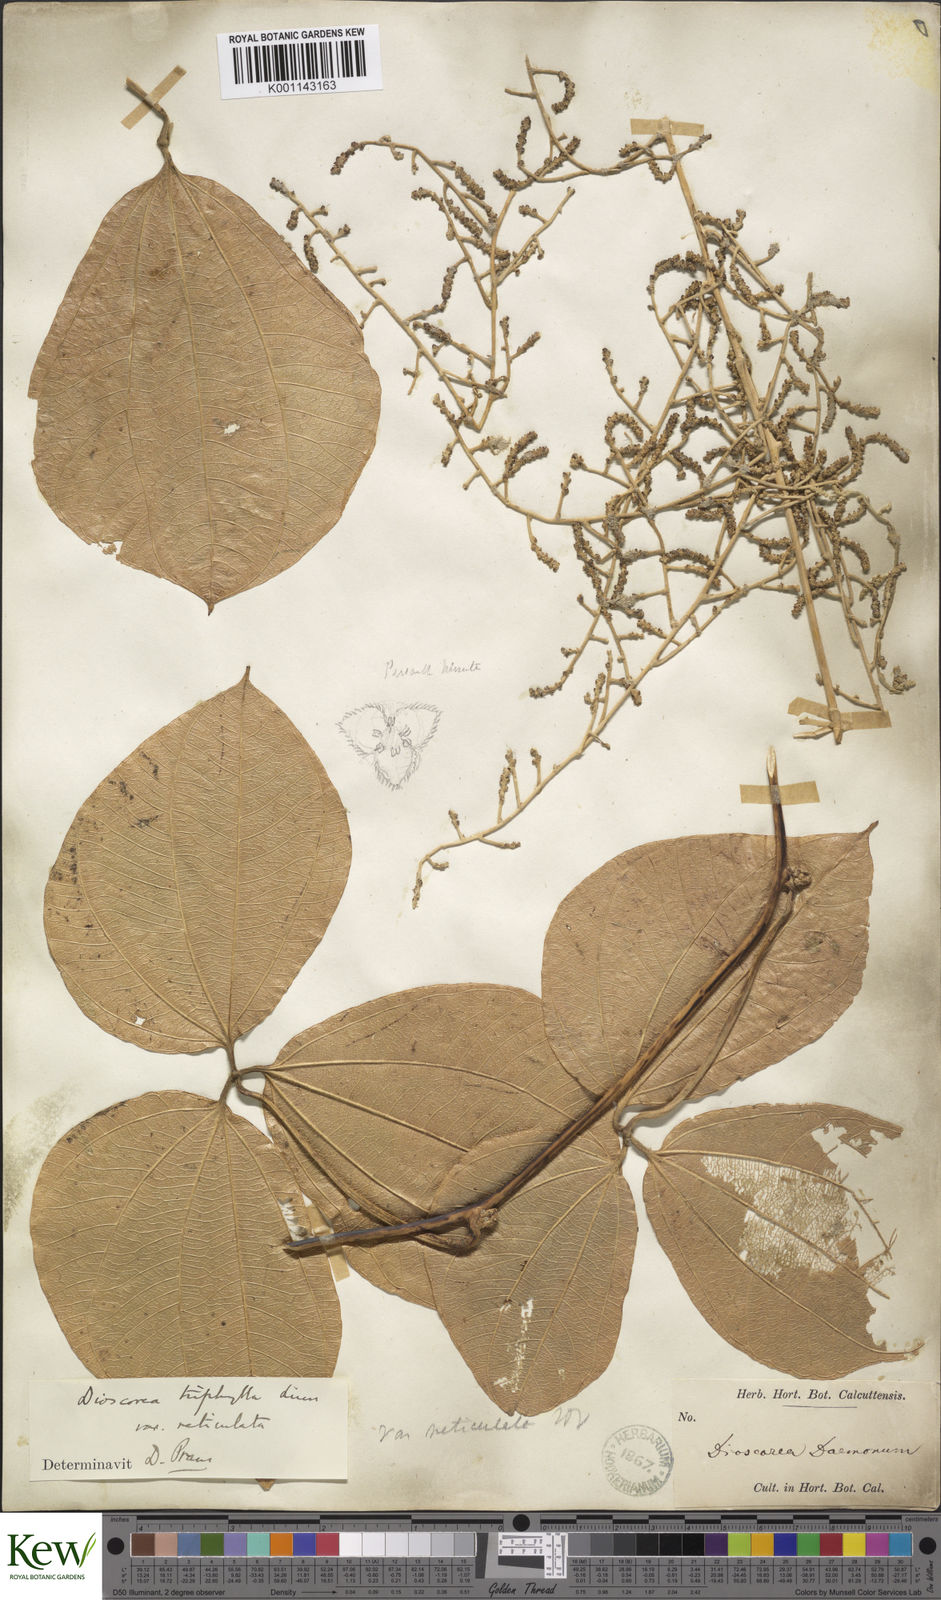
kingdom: Plantae
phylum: Tracheophyta
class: Liliopsida
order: Dioscoreales
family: Dioscoreaceae
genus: Dioscorea
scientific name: Dioscorea hispida
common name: Asiatic bitter yam
